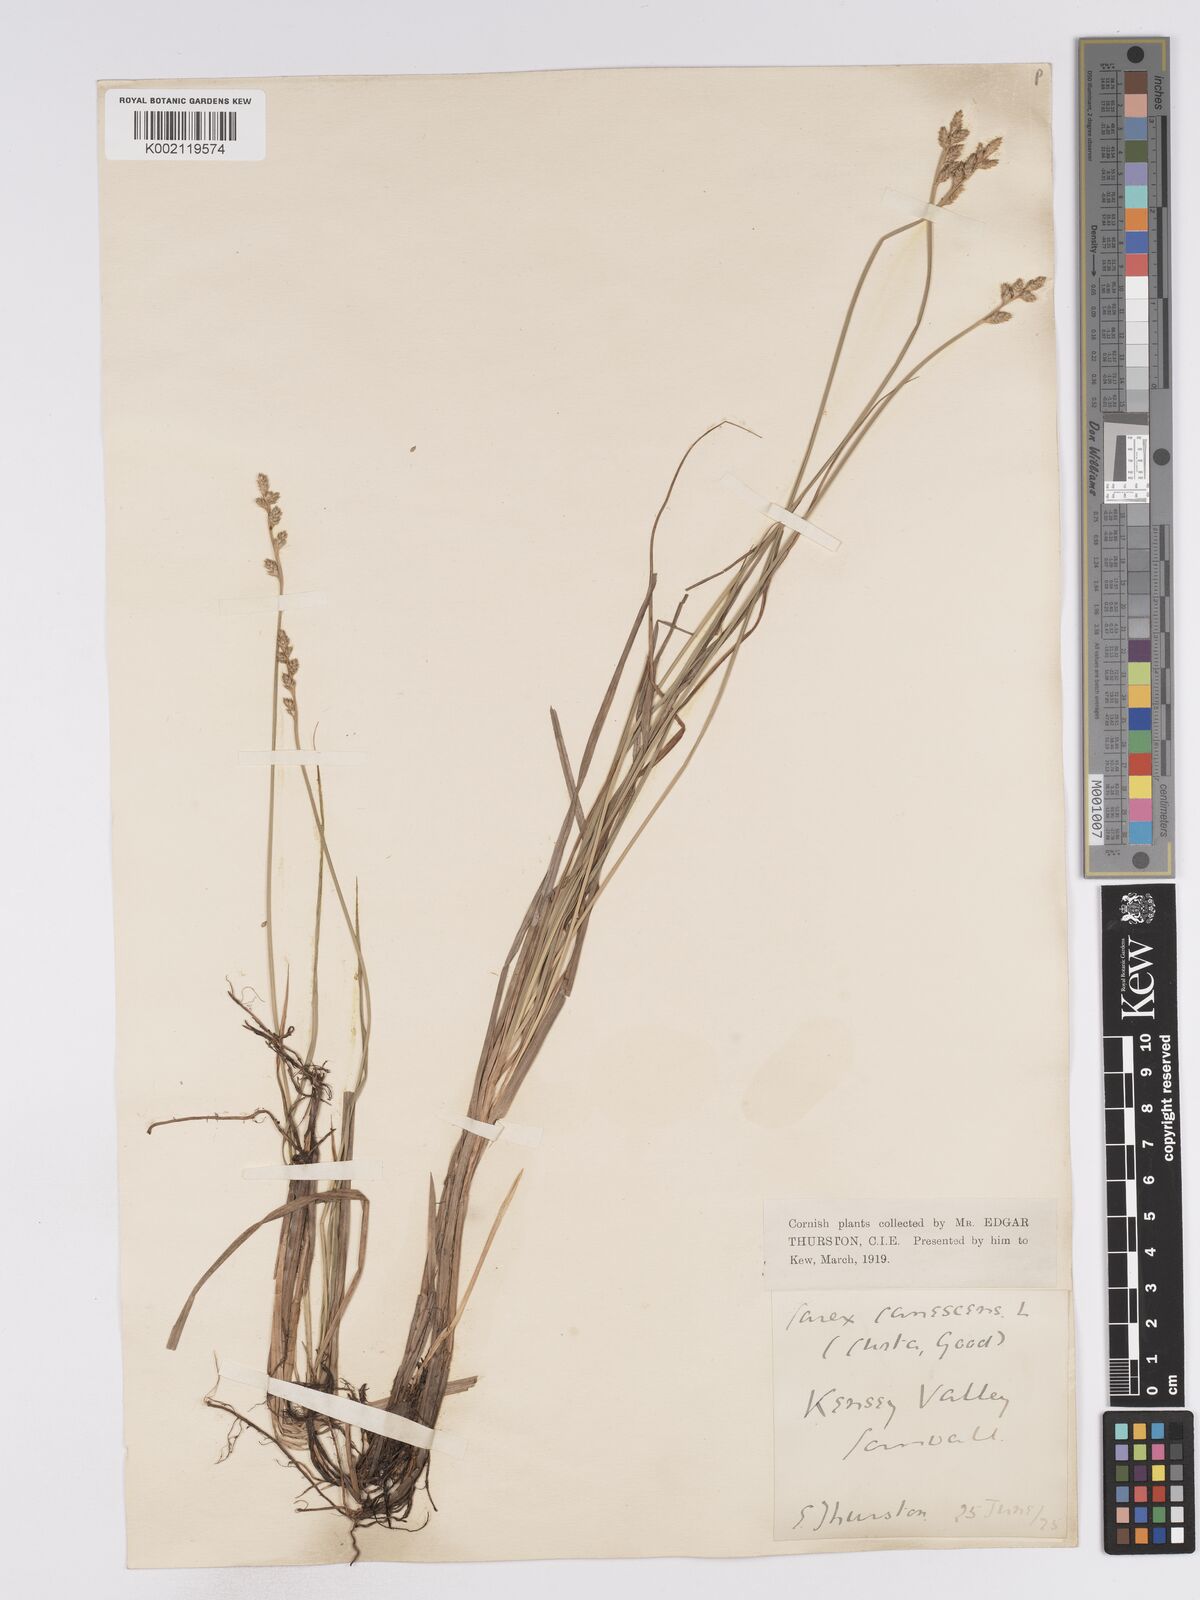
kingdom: Plantae
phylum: Tracheophyta
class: Liliopsida
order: Poales
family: Cyperaceae
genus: Carex
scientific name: Carex curta
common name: White sedge
